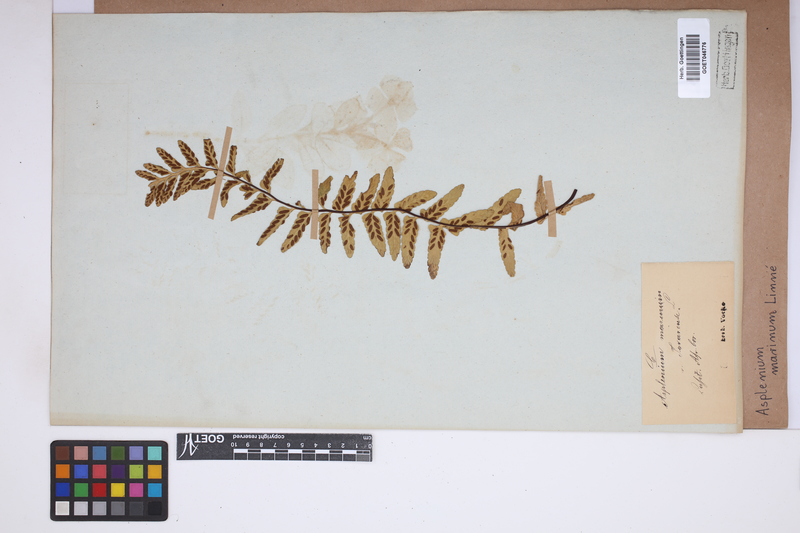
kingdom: Plantae
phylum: Tracheophyta
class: Polypodiopsida
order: Polypodiales
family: Aspleniaceae
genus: Asplenium
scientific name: Asplenium marinum
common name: Sea spleenwort
